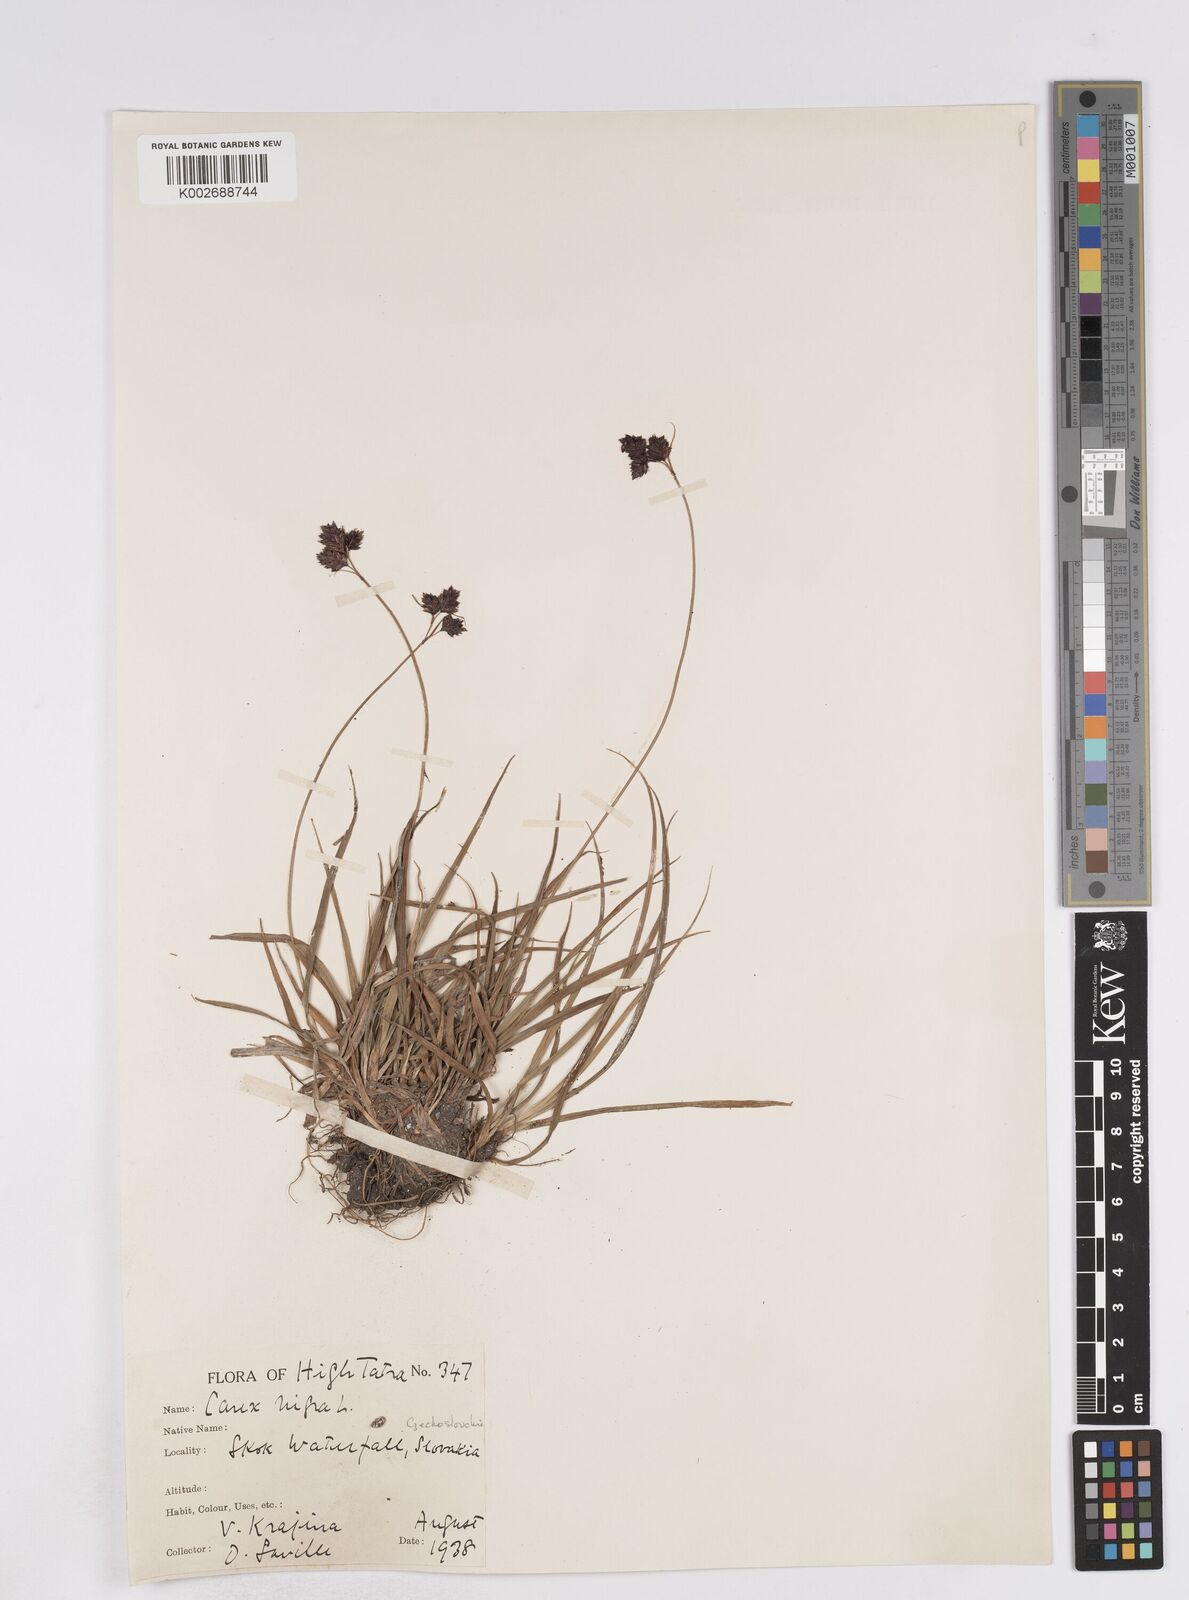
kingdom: Plantae
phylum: Tracheophyta
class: Liliopsida
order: Poales
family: Cyperaceae
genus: Carex
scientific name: Carex parviflora
